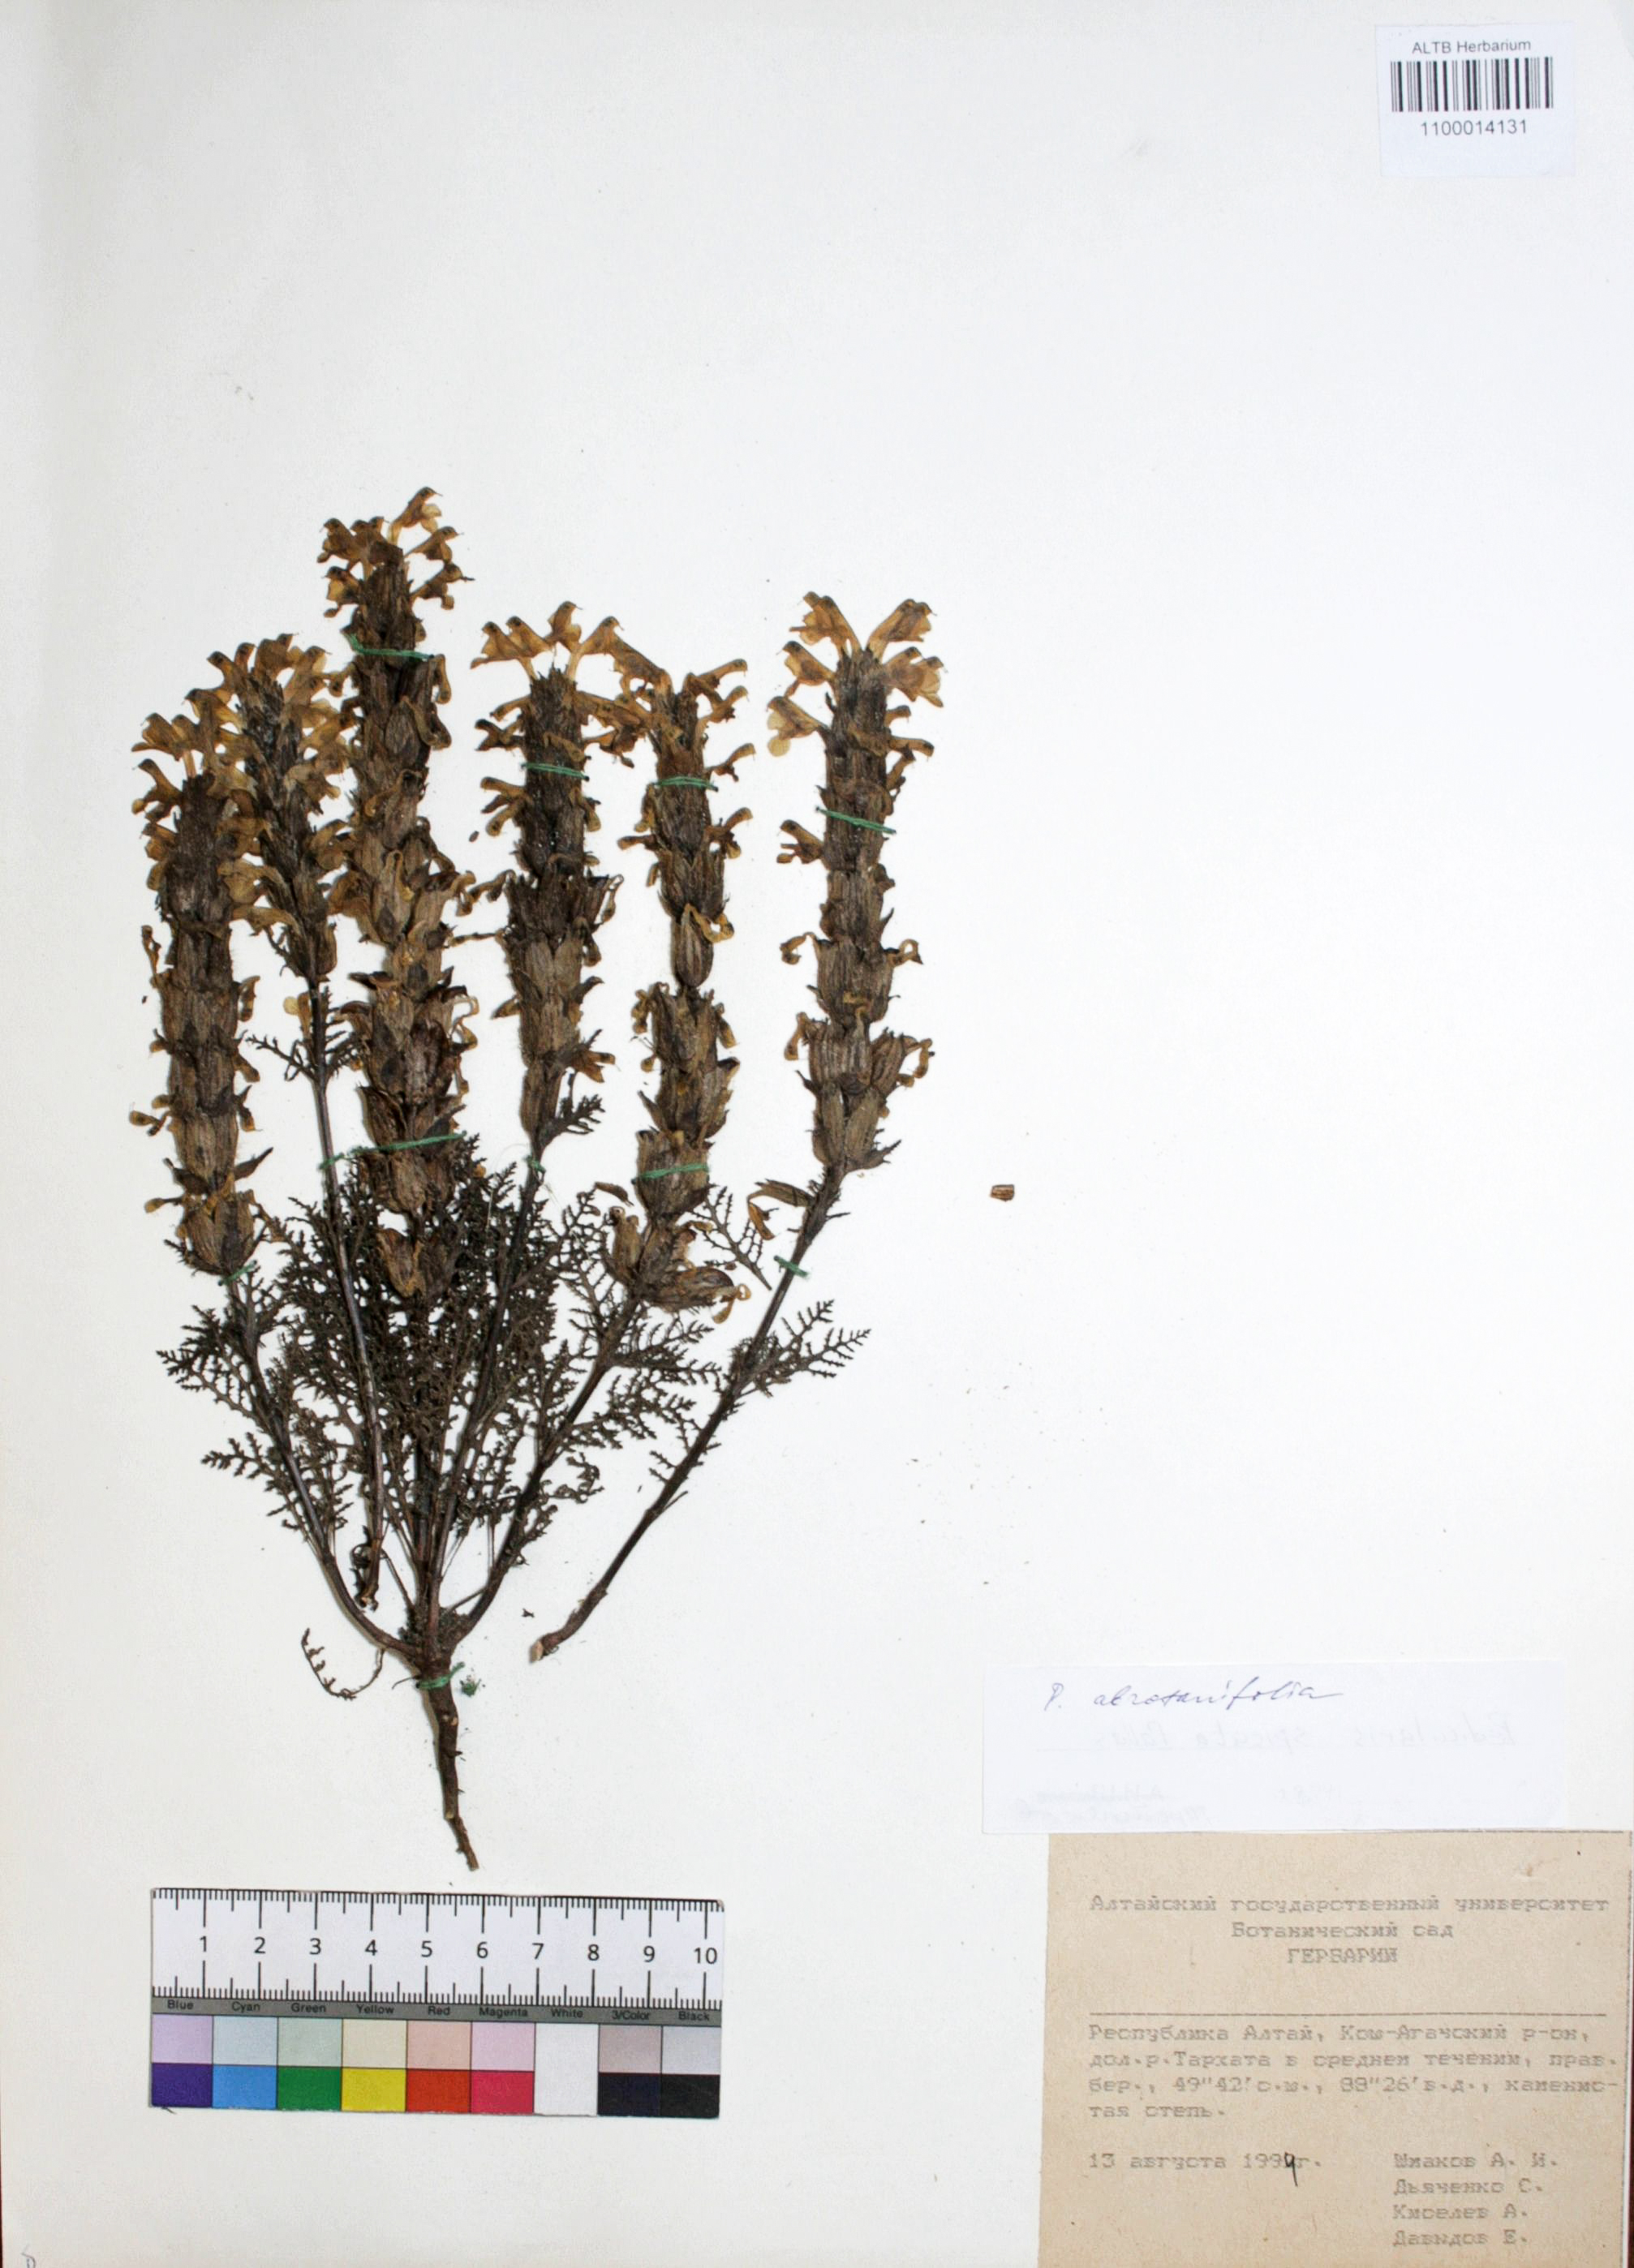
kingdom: Plantae
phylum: Tracheophyta
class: Magnoliopsida
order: Lamiales
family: Orobanchaceae
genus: Pedicularis
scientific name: Pedicularis abrotanifolia
